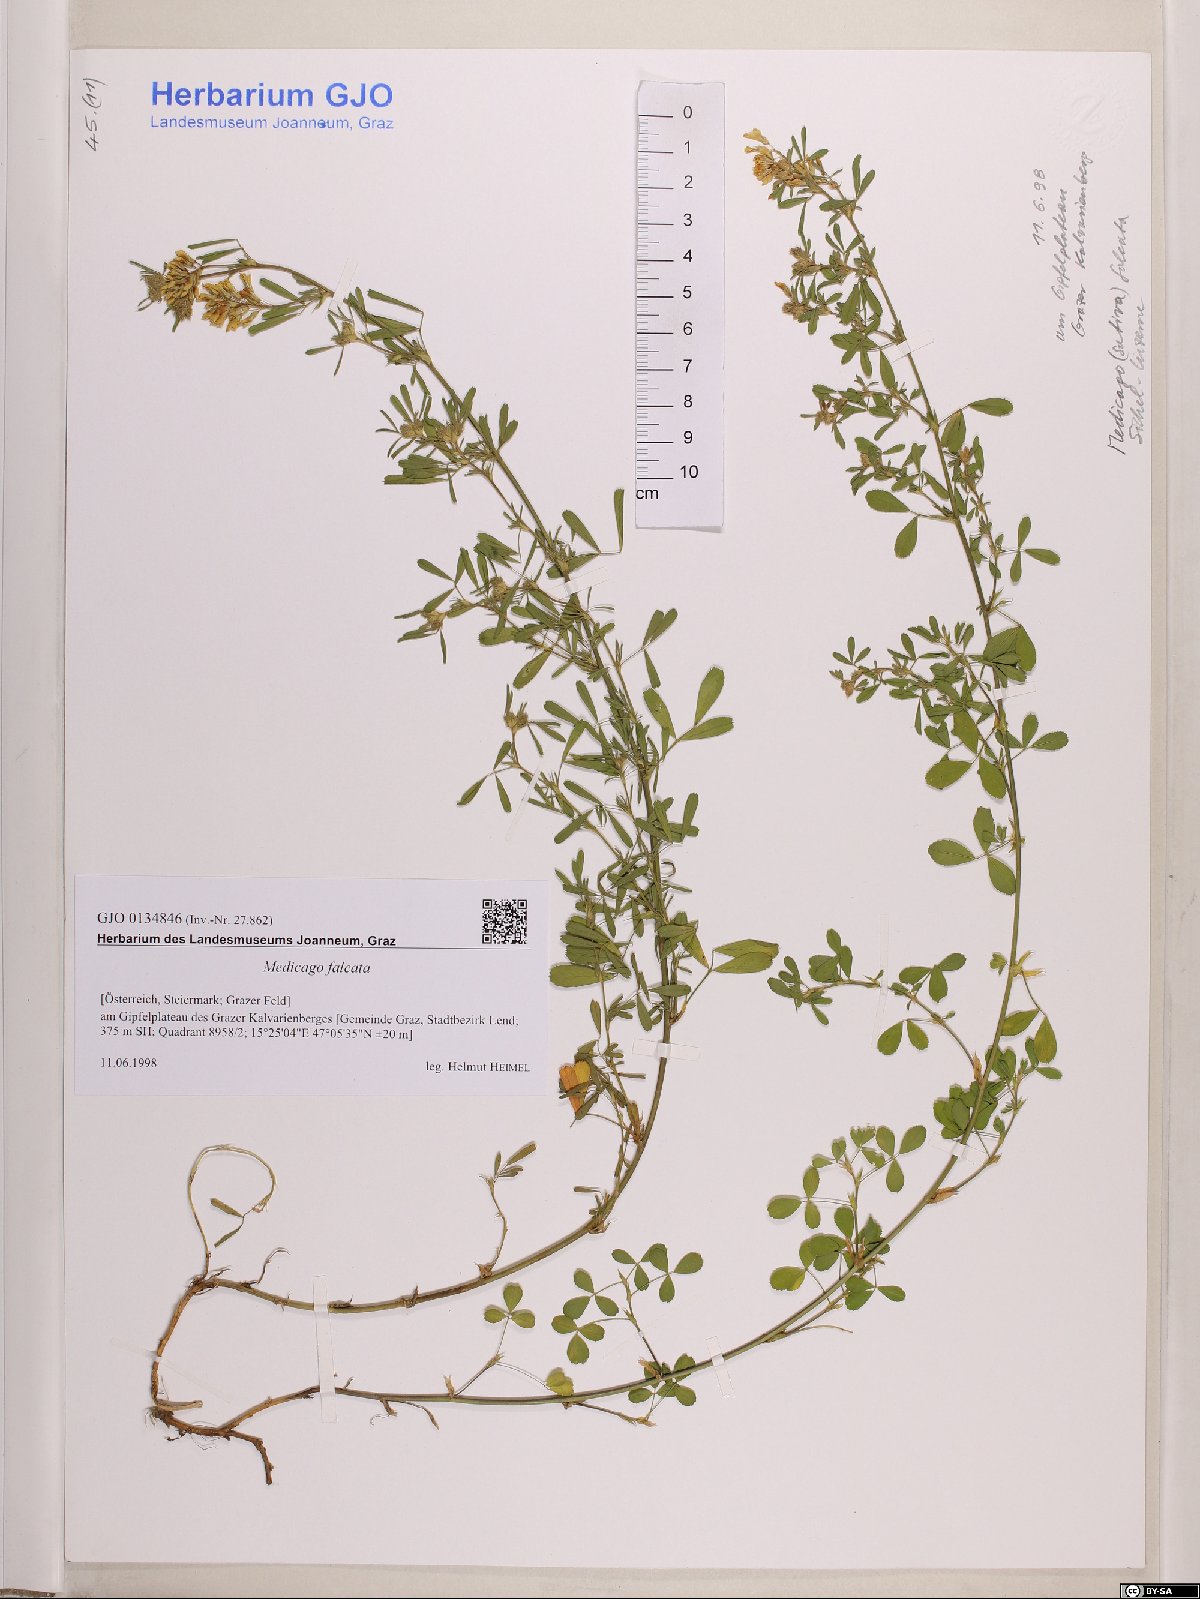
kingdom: Plantae
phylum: Tracheophyta
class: Magnoliopsida
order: Fabales
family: Fabaceae
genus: Medicago
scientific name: Medicago falcata
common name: Sickle medick
